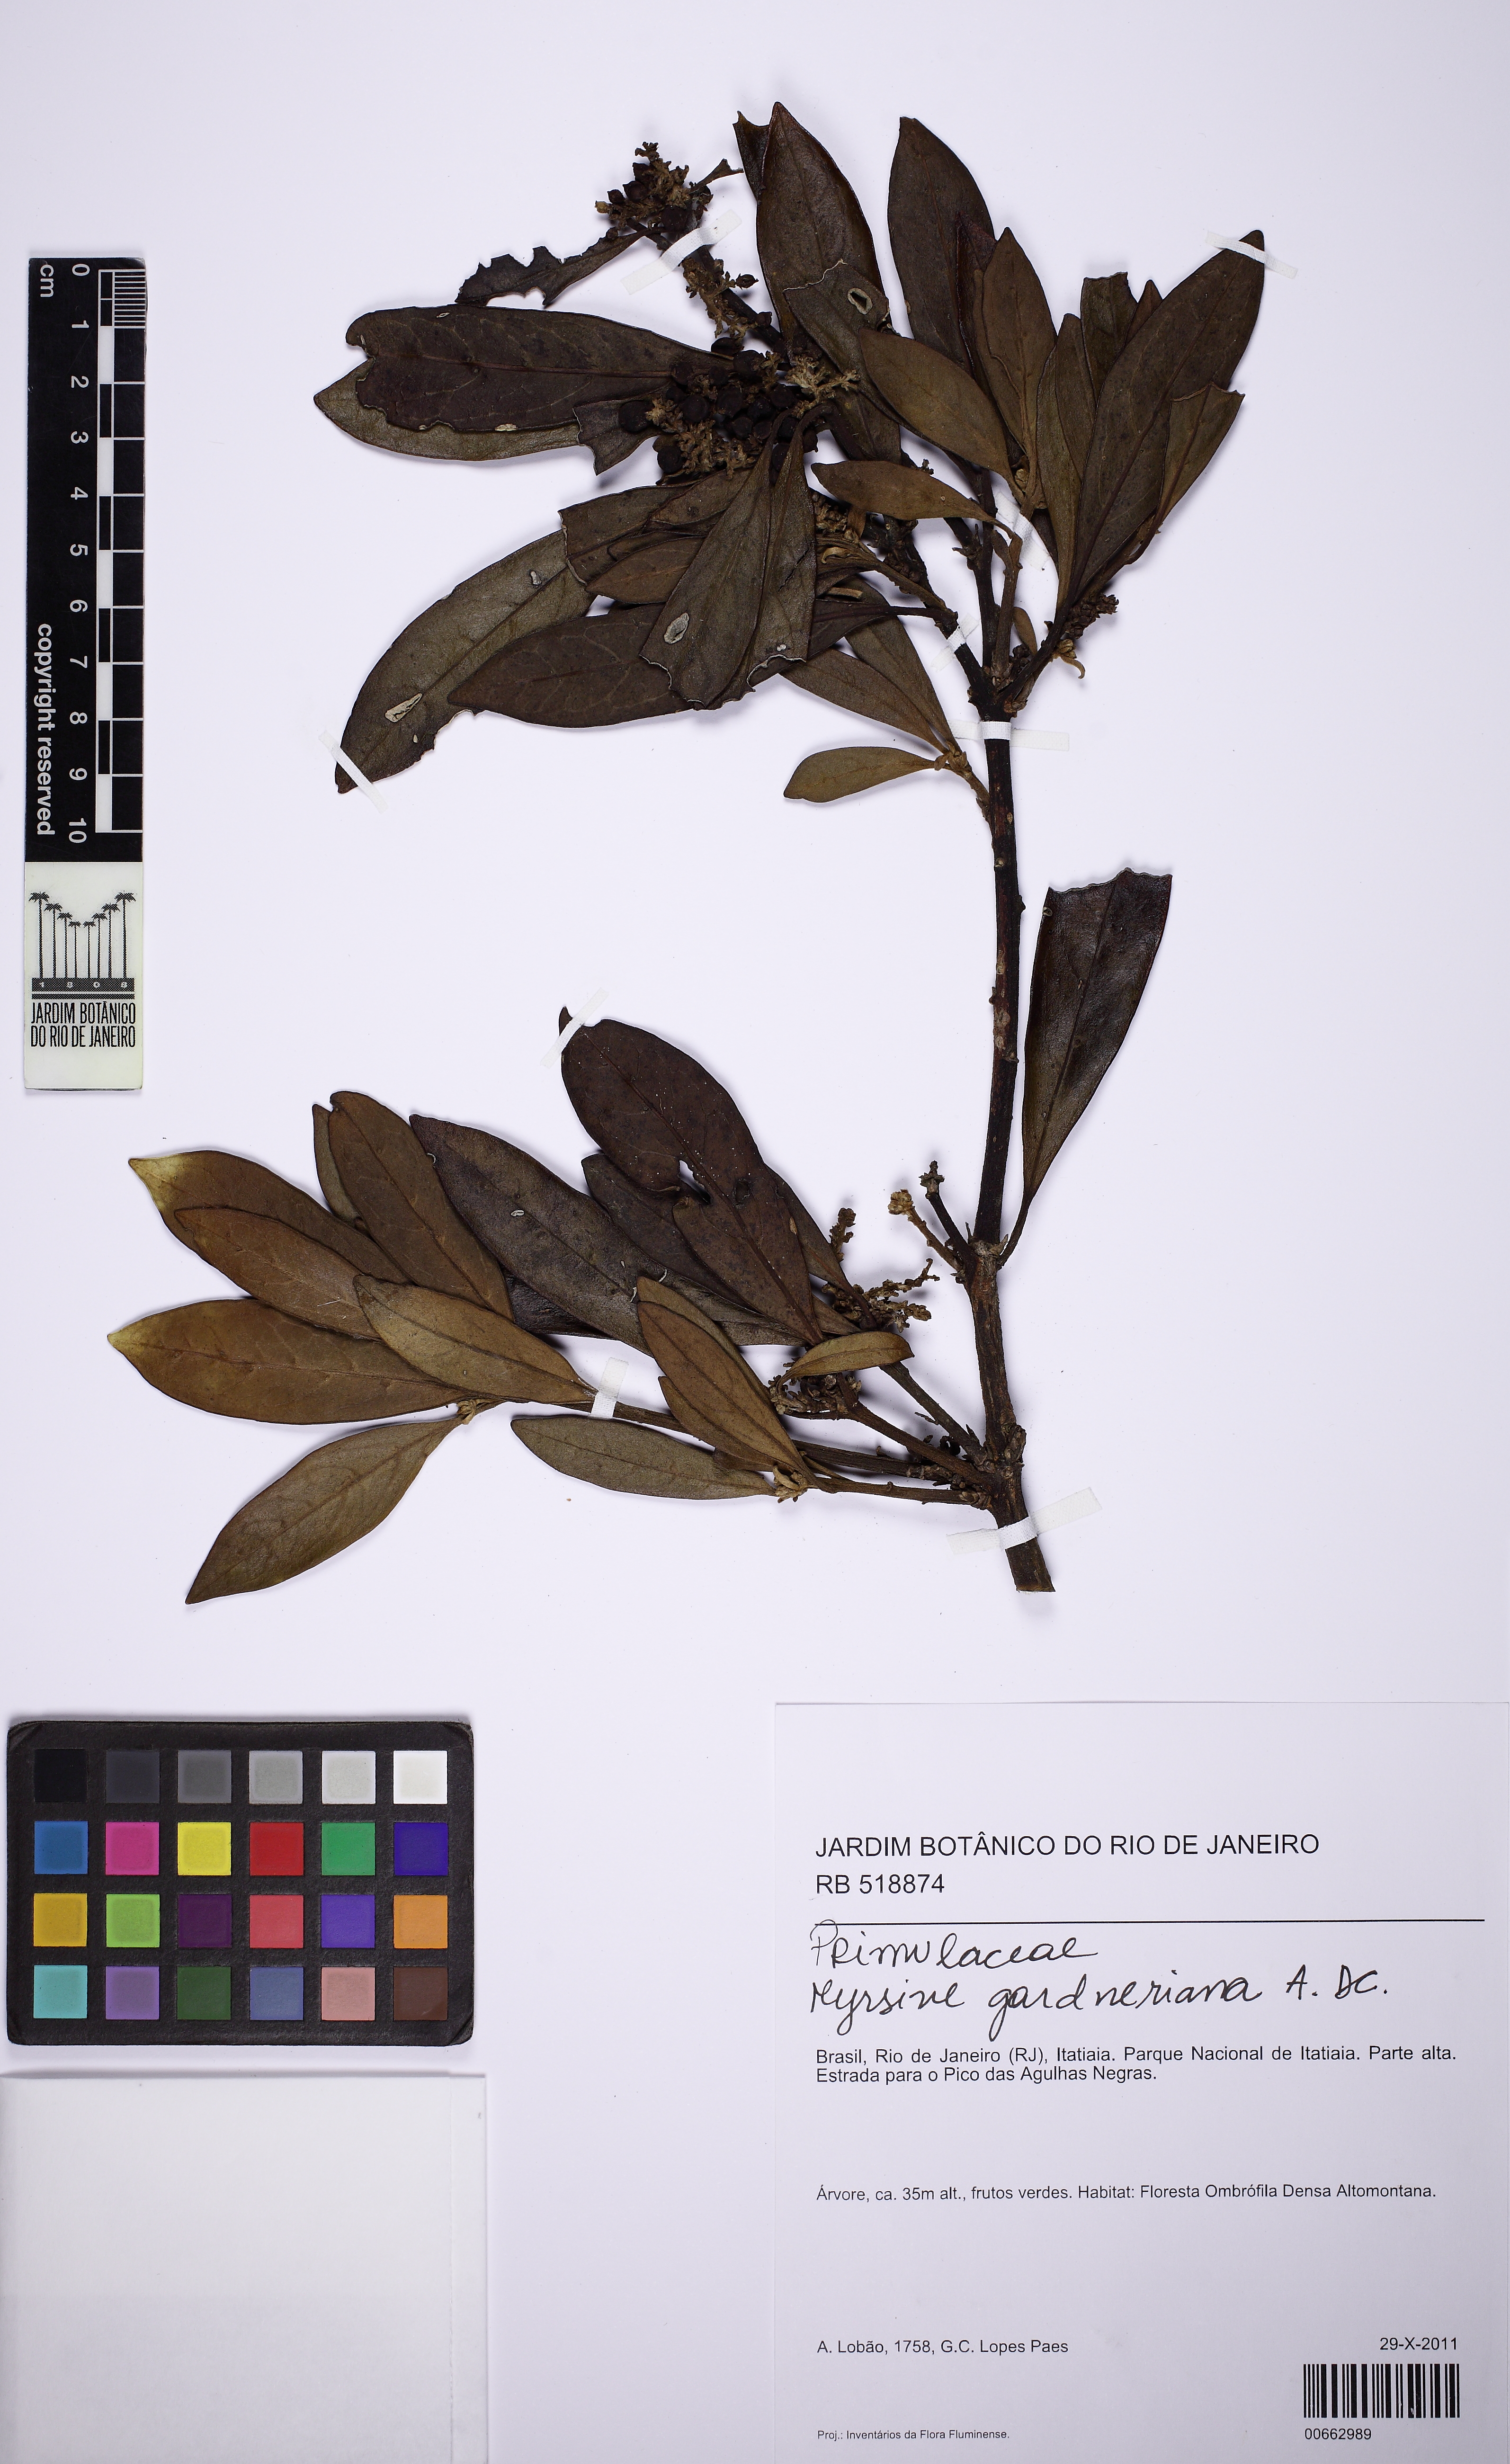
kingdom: Plantae
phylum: Tracheophyta
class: Magnoliopsida
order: Ericales
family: Primulaceae
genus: Myrsine
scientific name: Myrsine gardneriana
